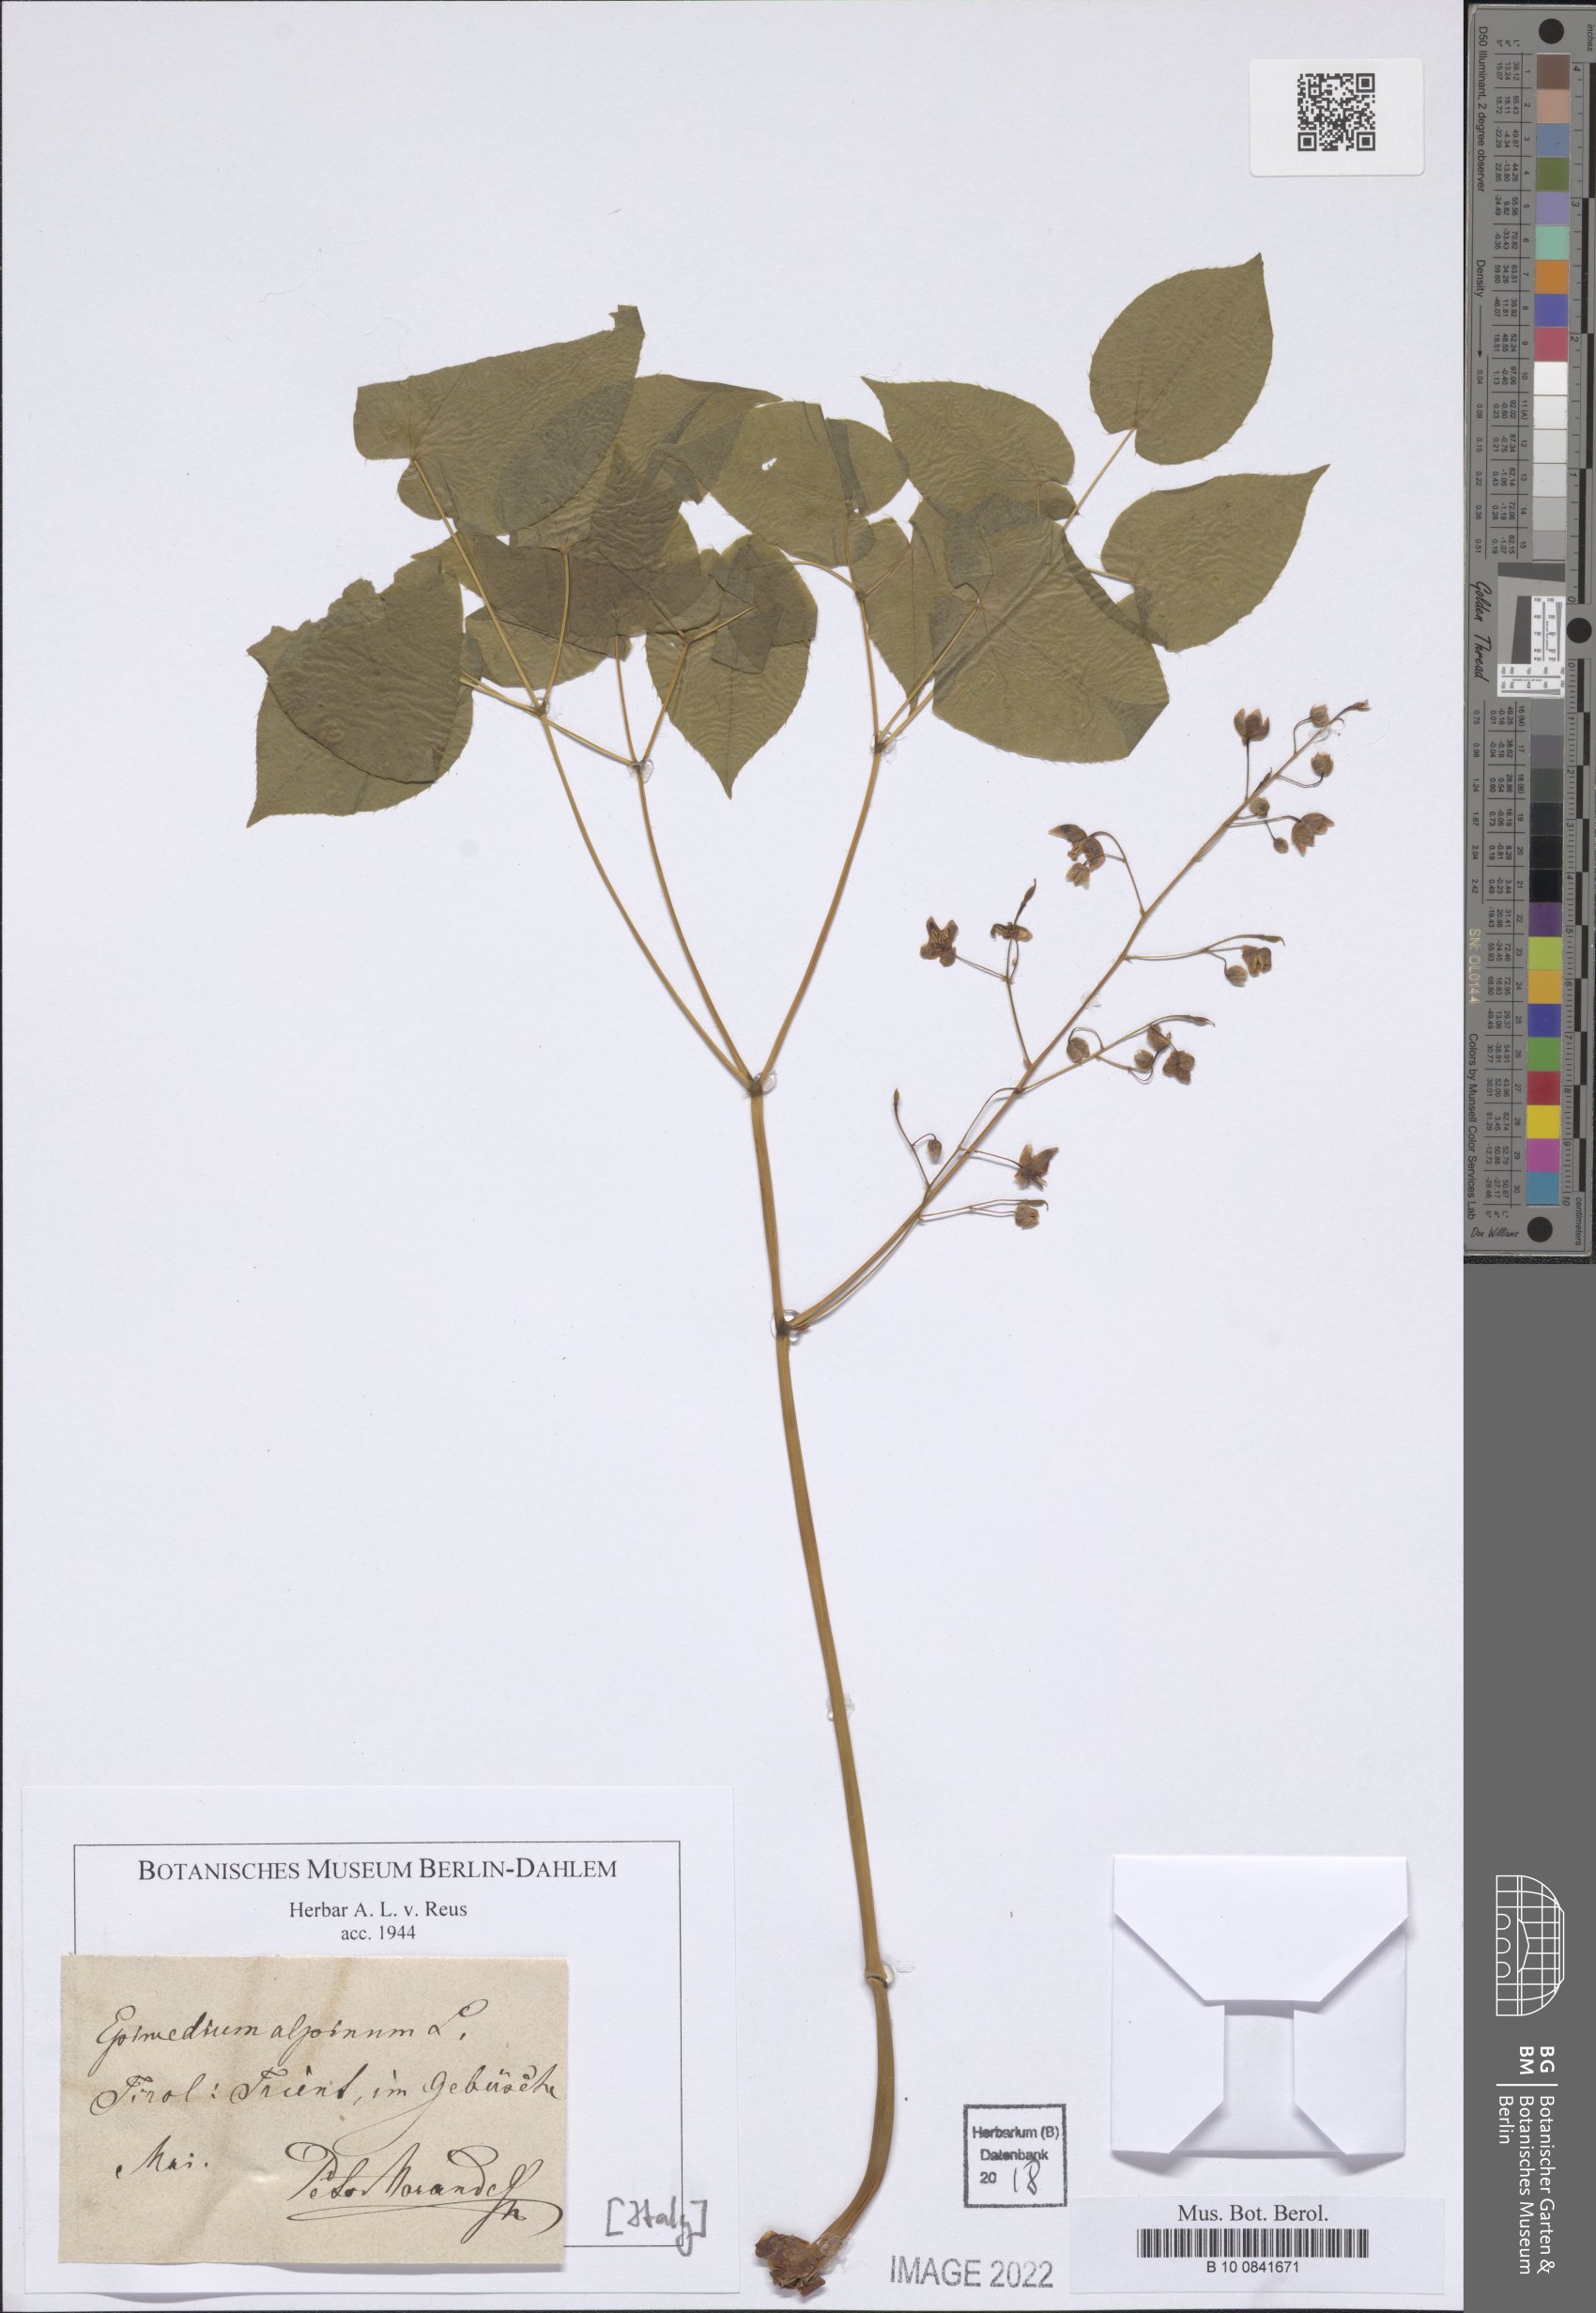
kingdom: Plantae
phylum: Tracheophyta
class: Magnoliopsida
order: Ranunculales
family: Berberidaceae
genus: Epimedium
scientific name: Epimedium alpinum
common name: Barrenwort
